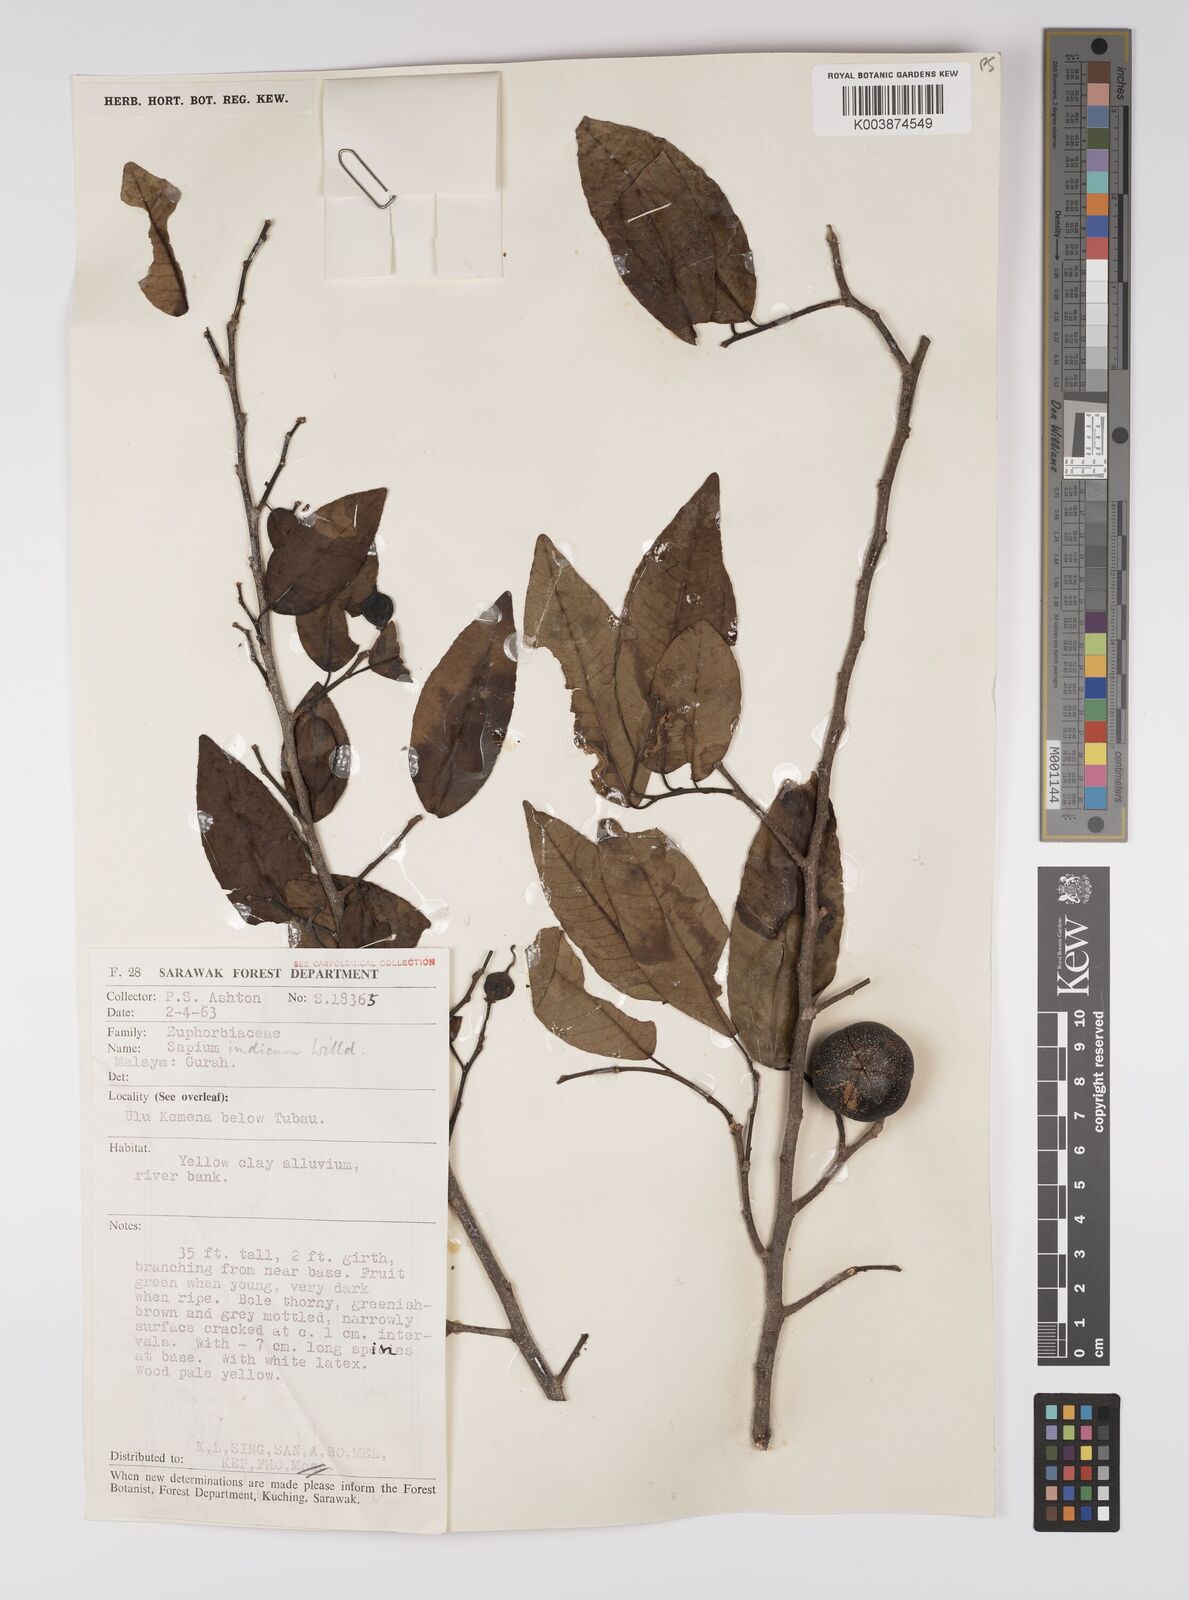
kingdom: Plantae
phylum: Tracheophyta
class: Magnoliopsida
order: Malpighiales
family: Euphorbiaceae
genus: Shirakiopsis
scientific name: Shirakiopsis indica
